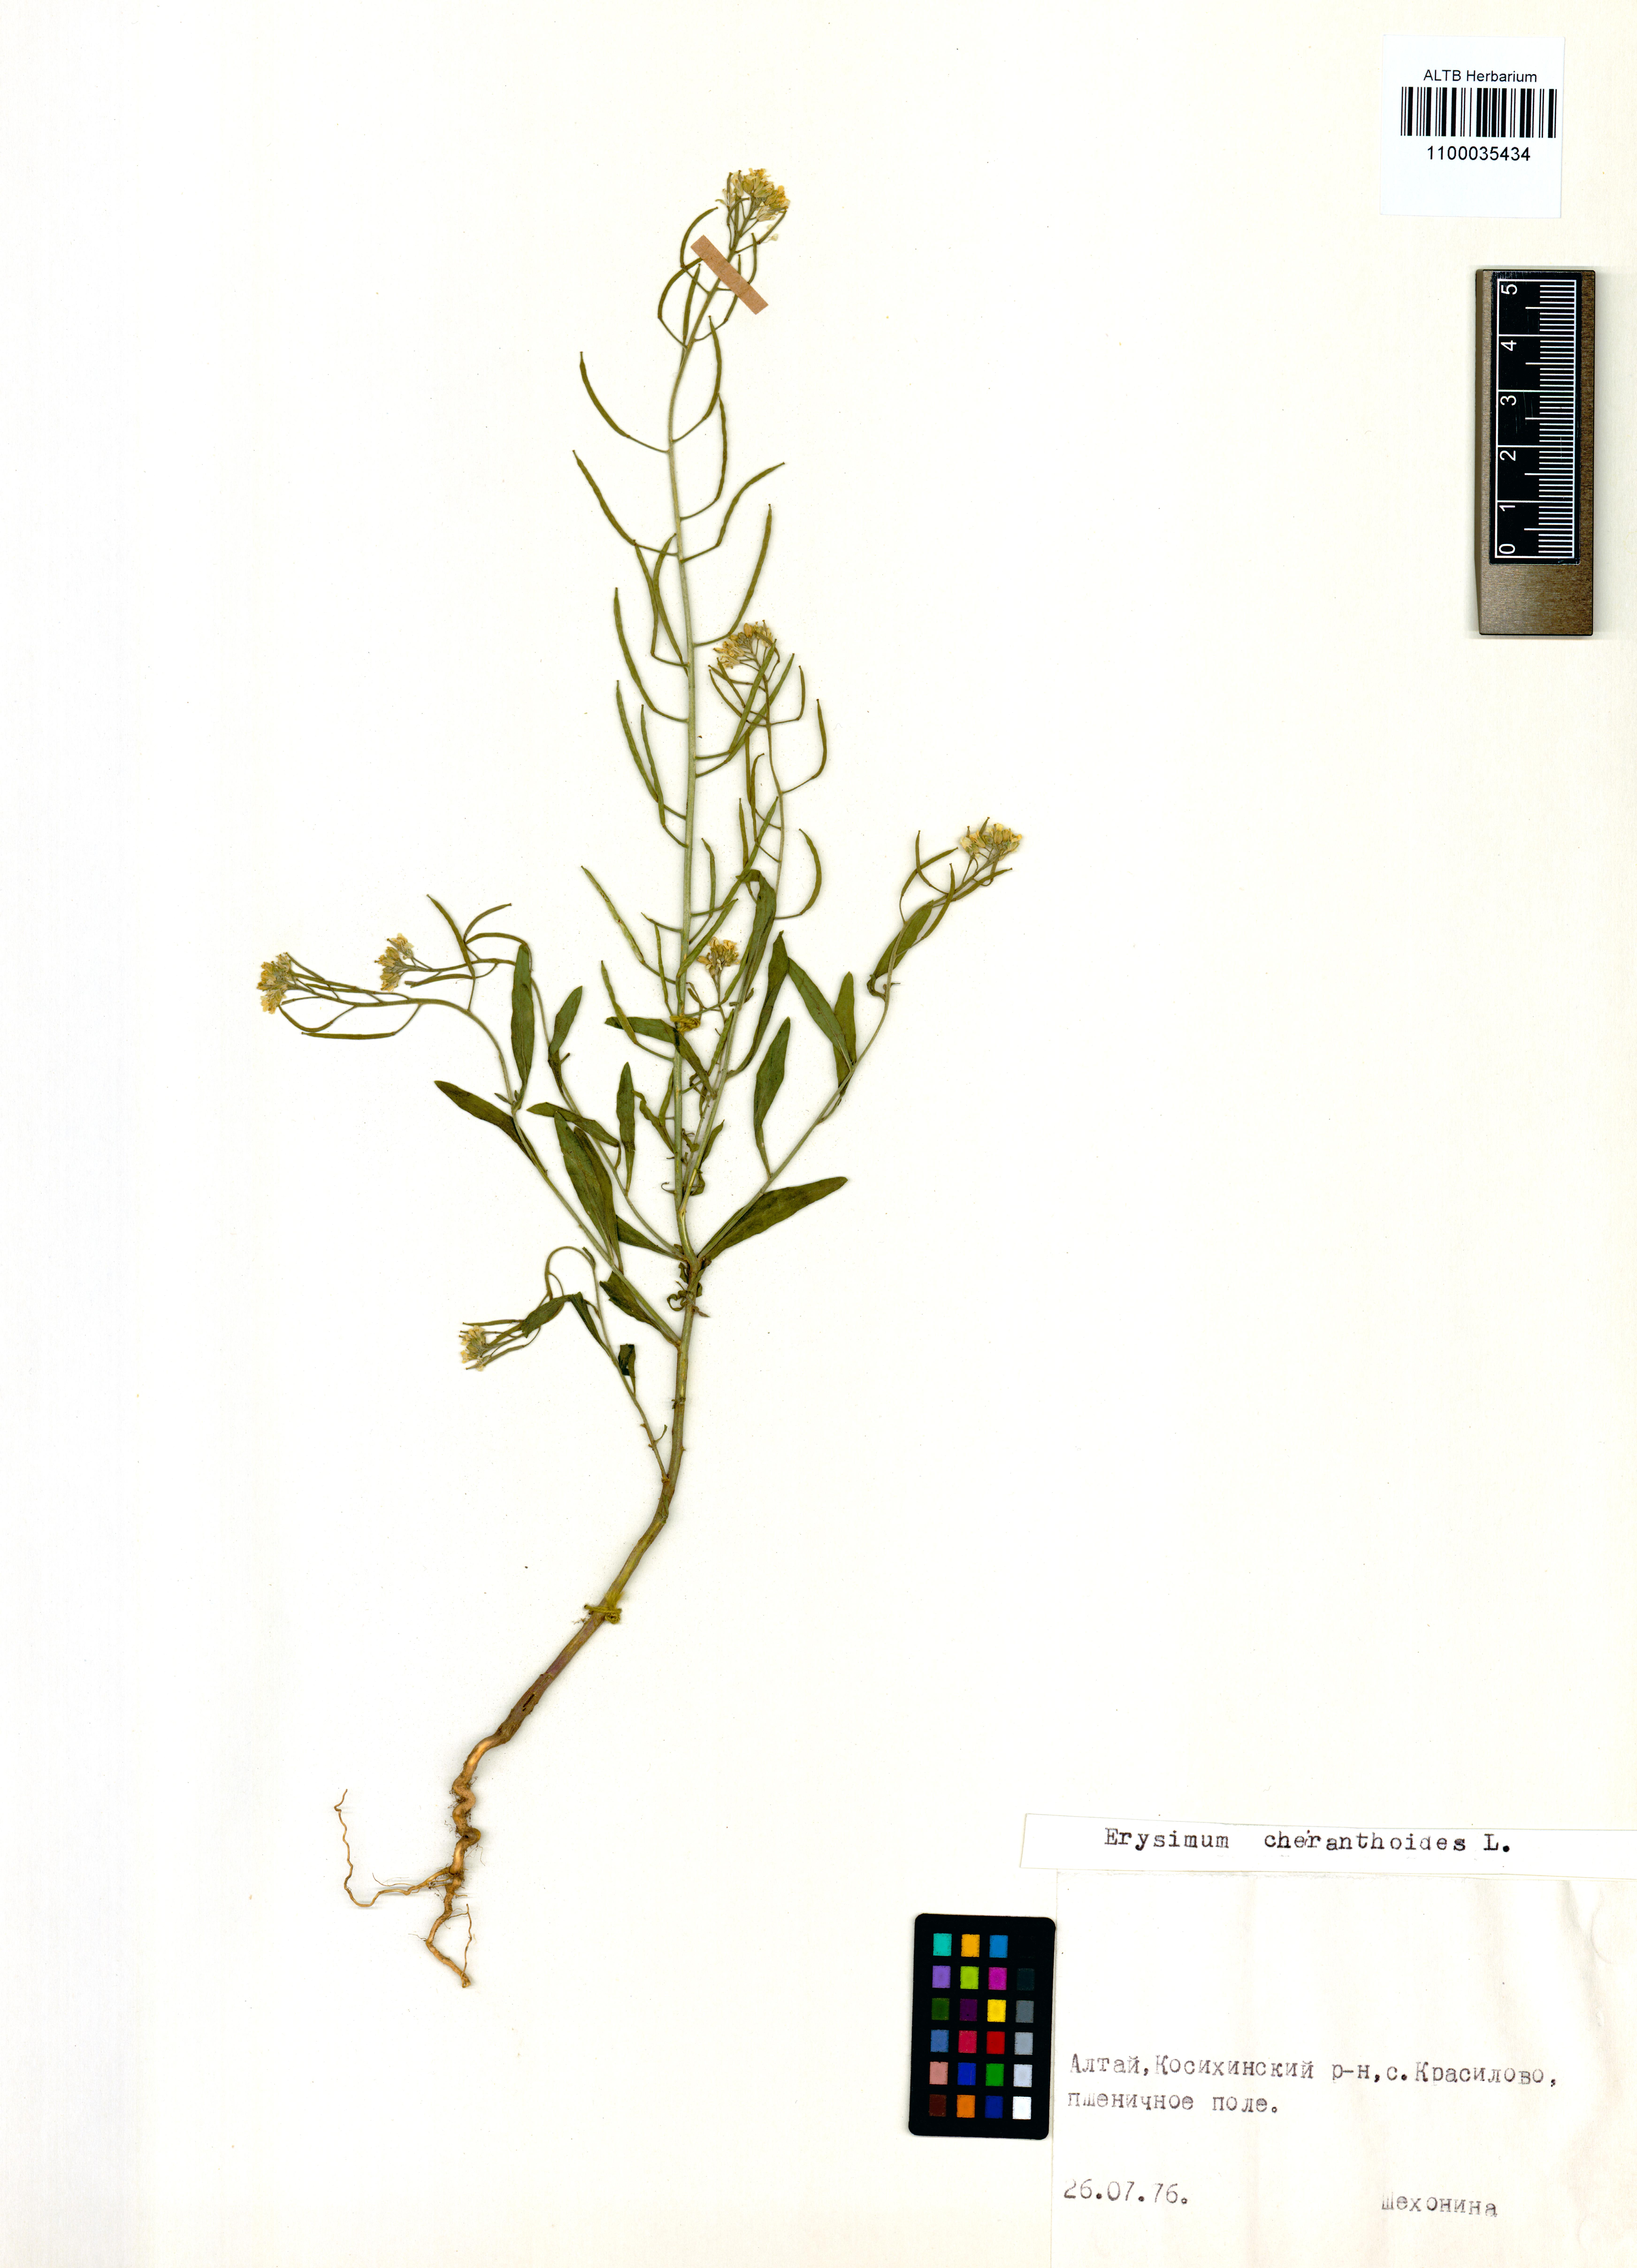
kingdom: Plantae
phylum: Tracheophyta
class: Magnoliopsida
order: Brassicales
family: Brassicaceae
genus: Erysimum
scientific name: Erysimum cheiranthoides
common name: Treacle mustard
